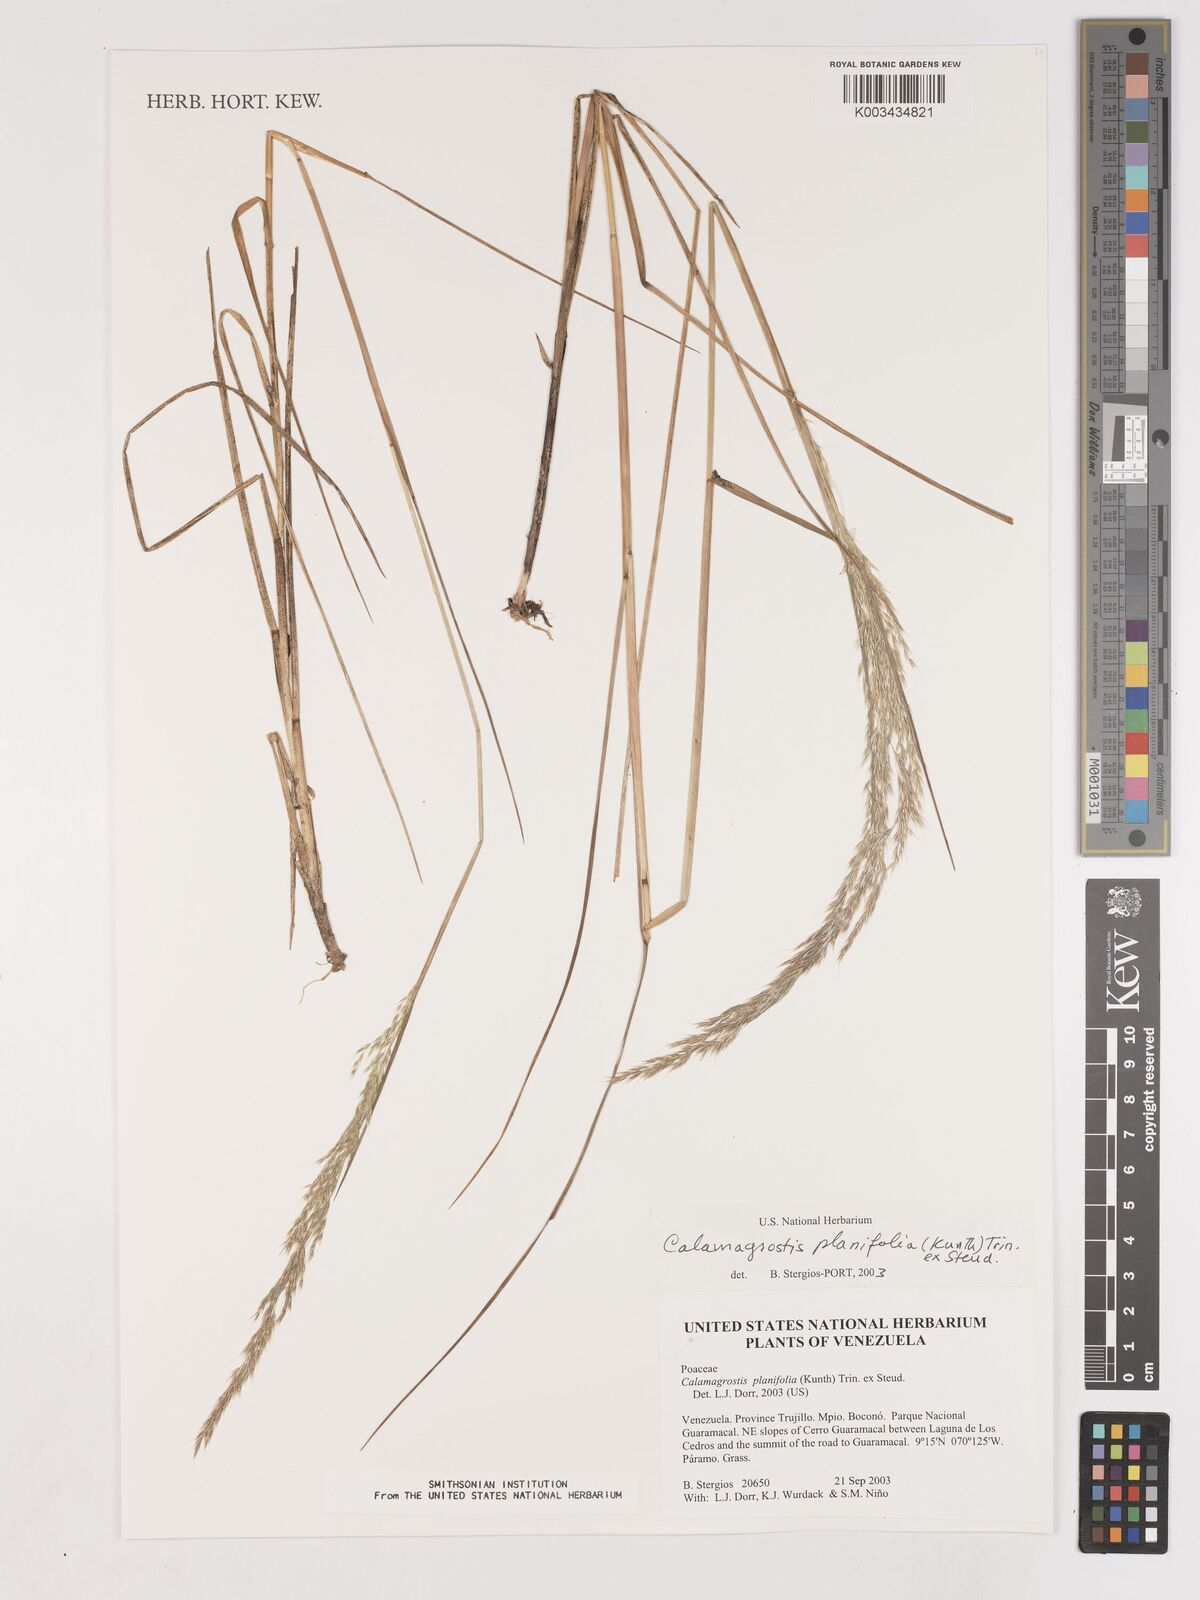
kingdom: Plantae
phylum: Tracheophyta
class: Liliopsida
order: Poales
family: Poaceae
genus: Peyritschia
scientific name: Peyritschia planifolia
